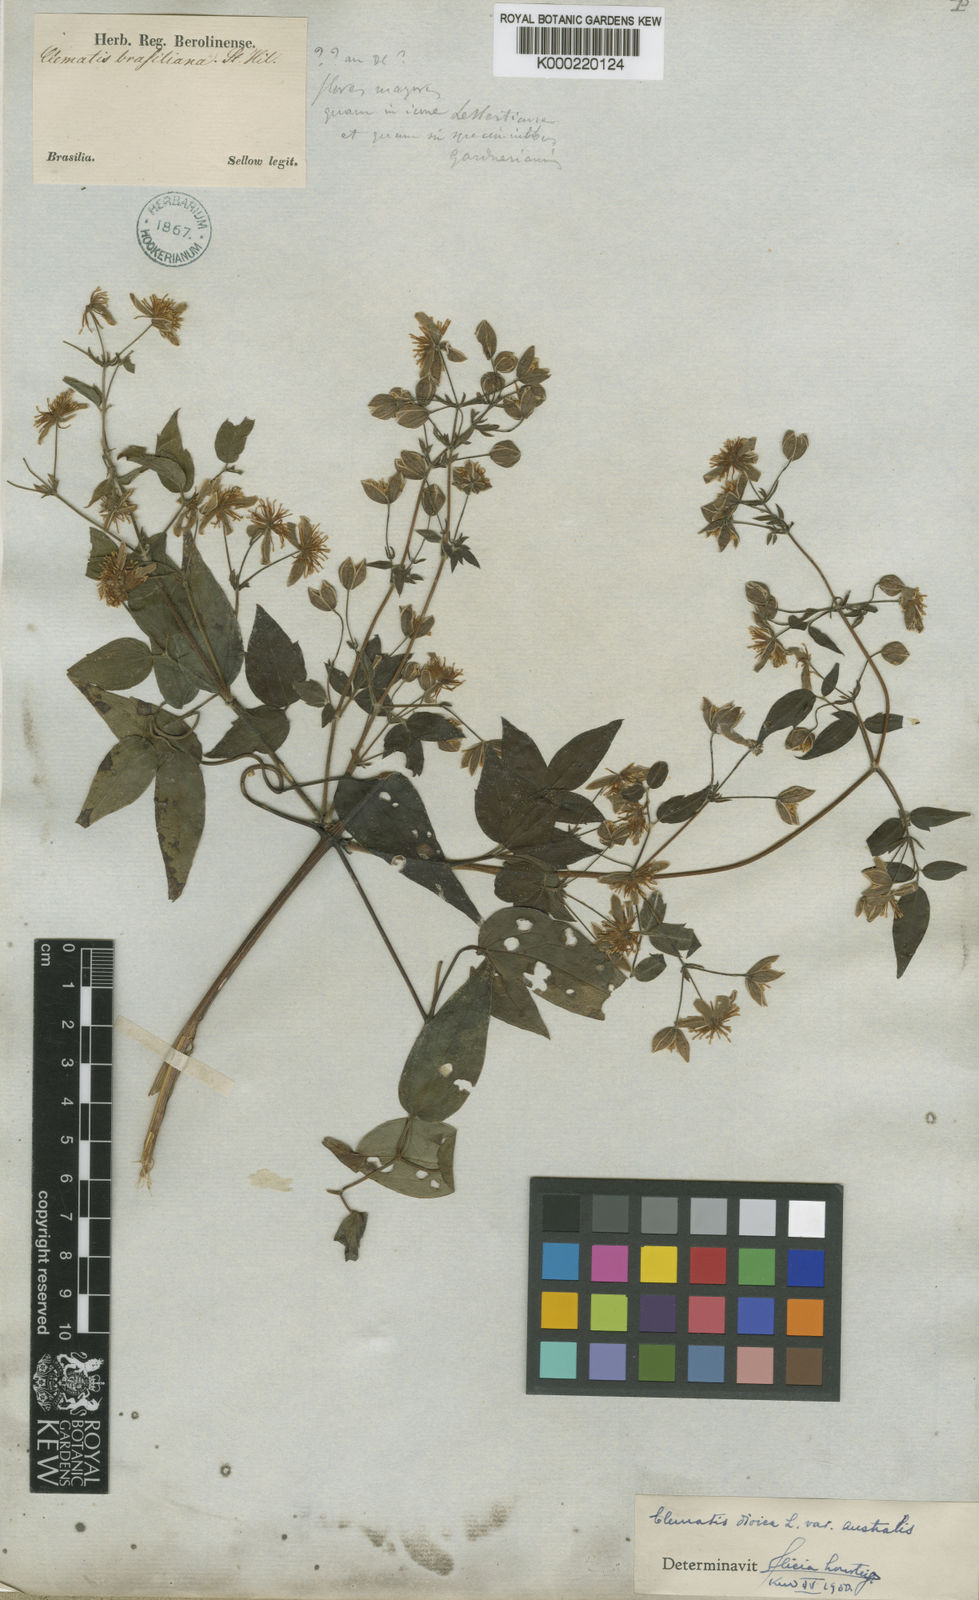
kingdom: Plantae
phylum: Tracheophyta
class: Magnoliopsida
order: Ranunculales
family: Ranunculaceae
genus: Clematis
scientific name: Clematis brasiliana
